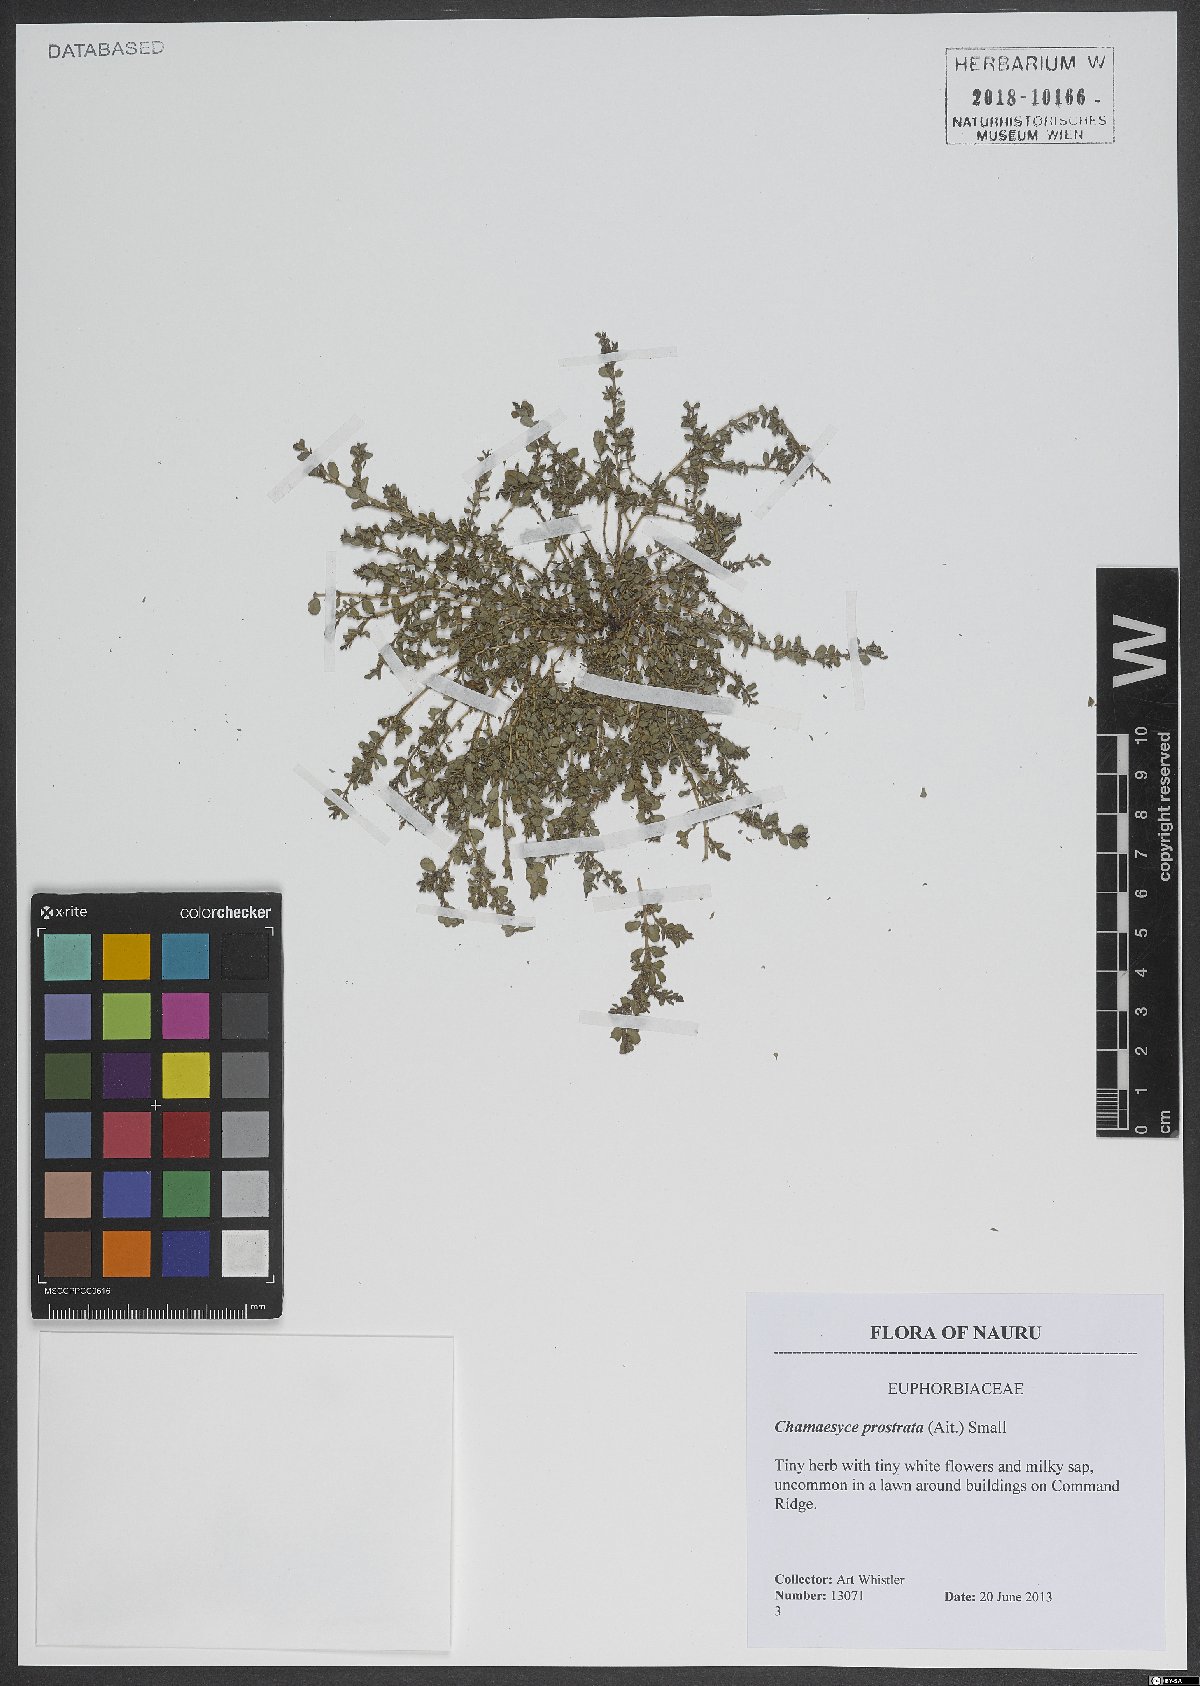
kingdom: Plantae
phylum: Tracheophyta
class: Magnoliopsida
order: Malpighiales
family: Euphorbiaceae
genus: Euphorbia
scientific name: Euphorbia prostrata
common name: Prostrate sandmat
